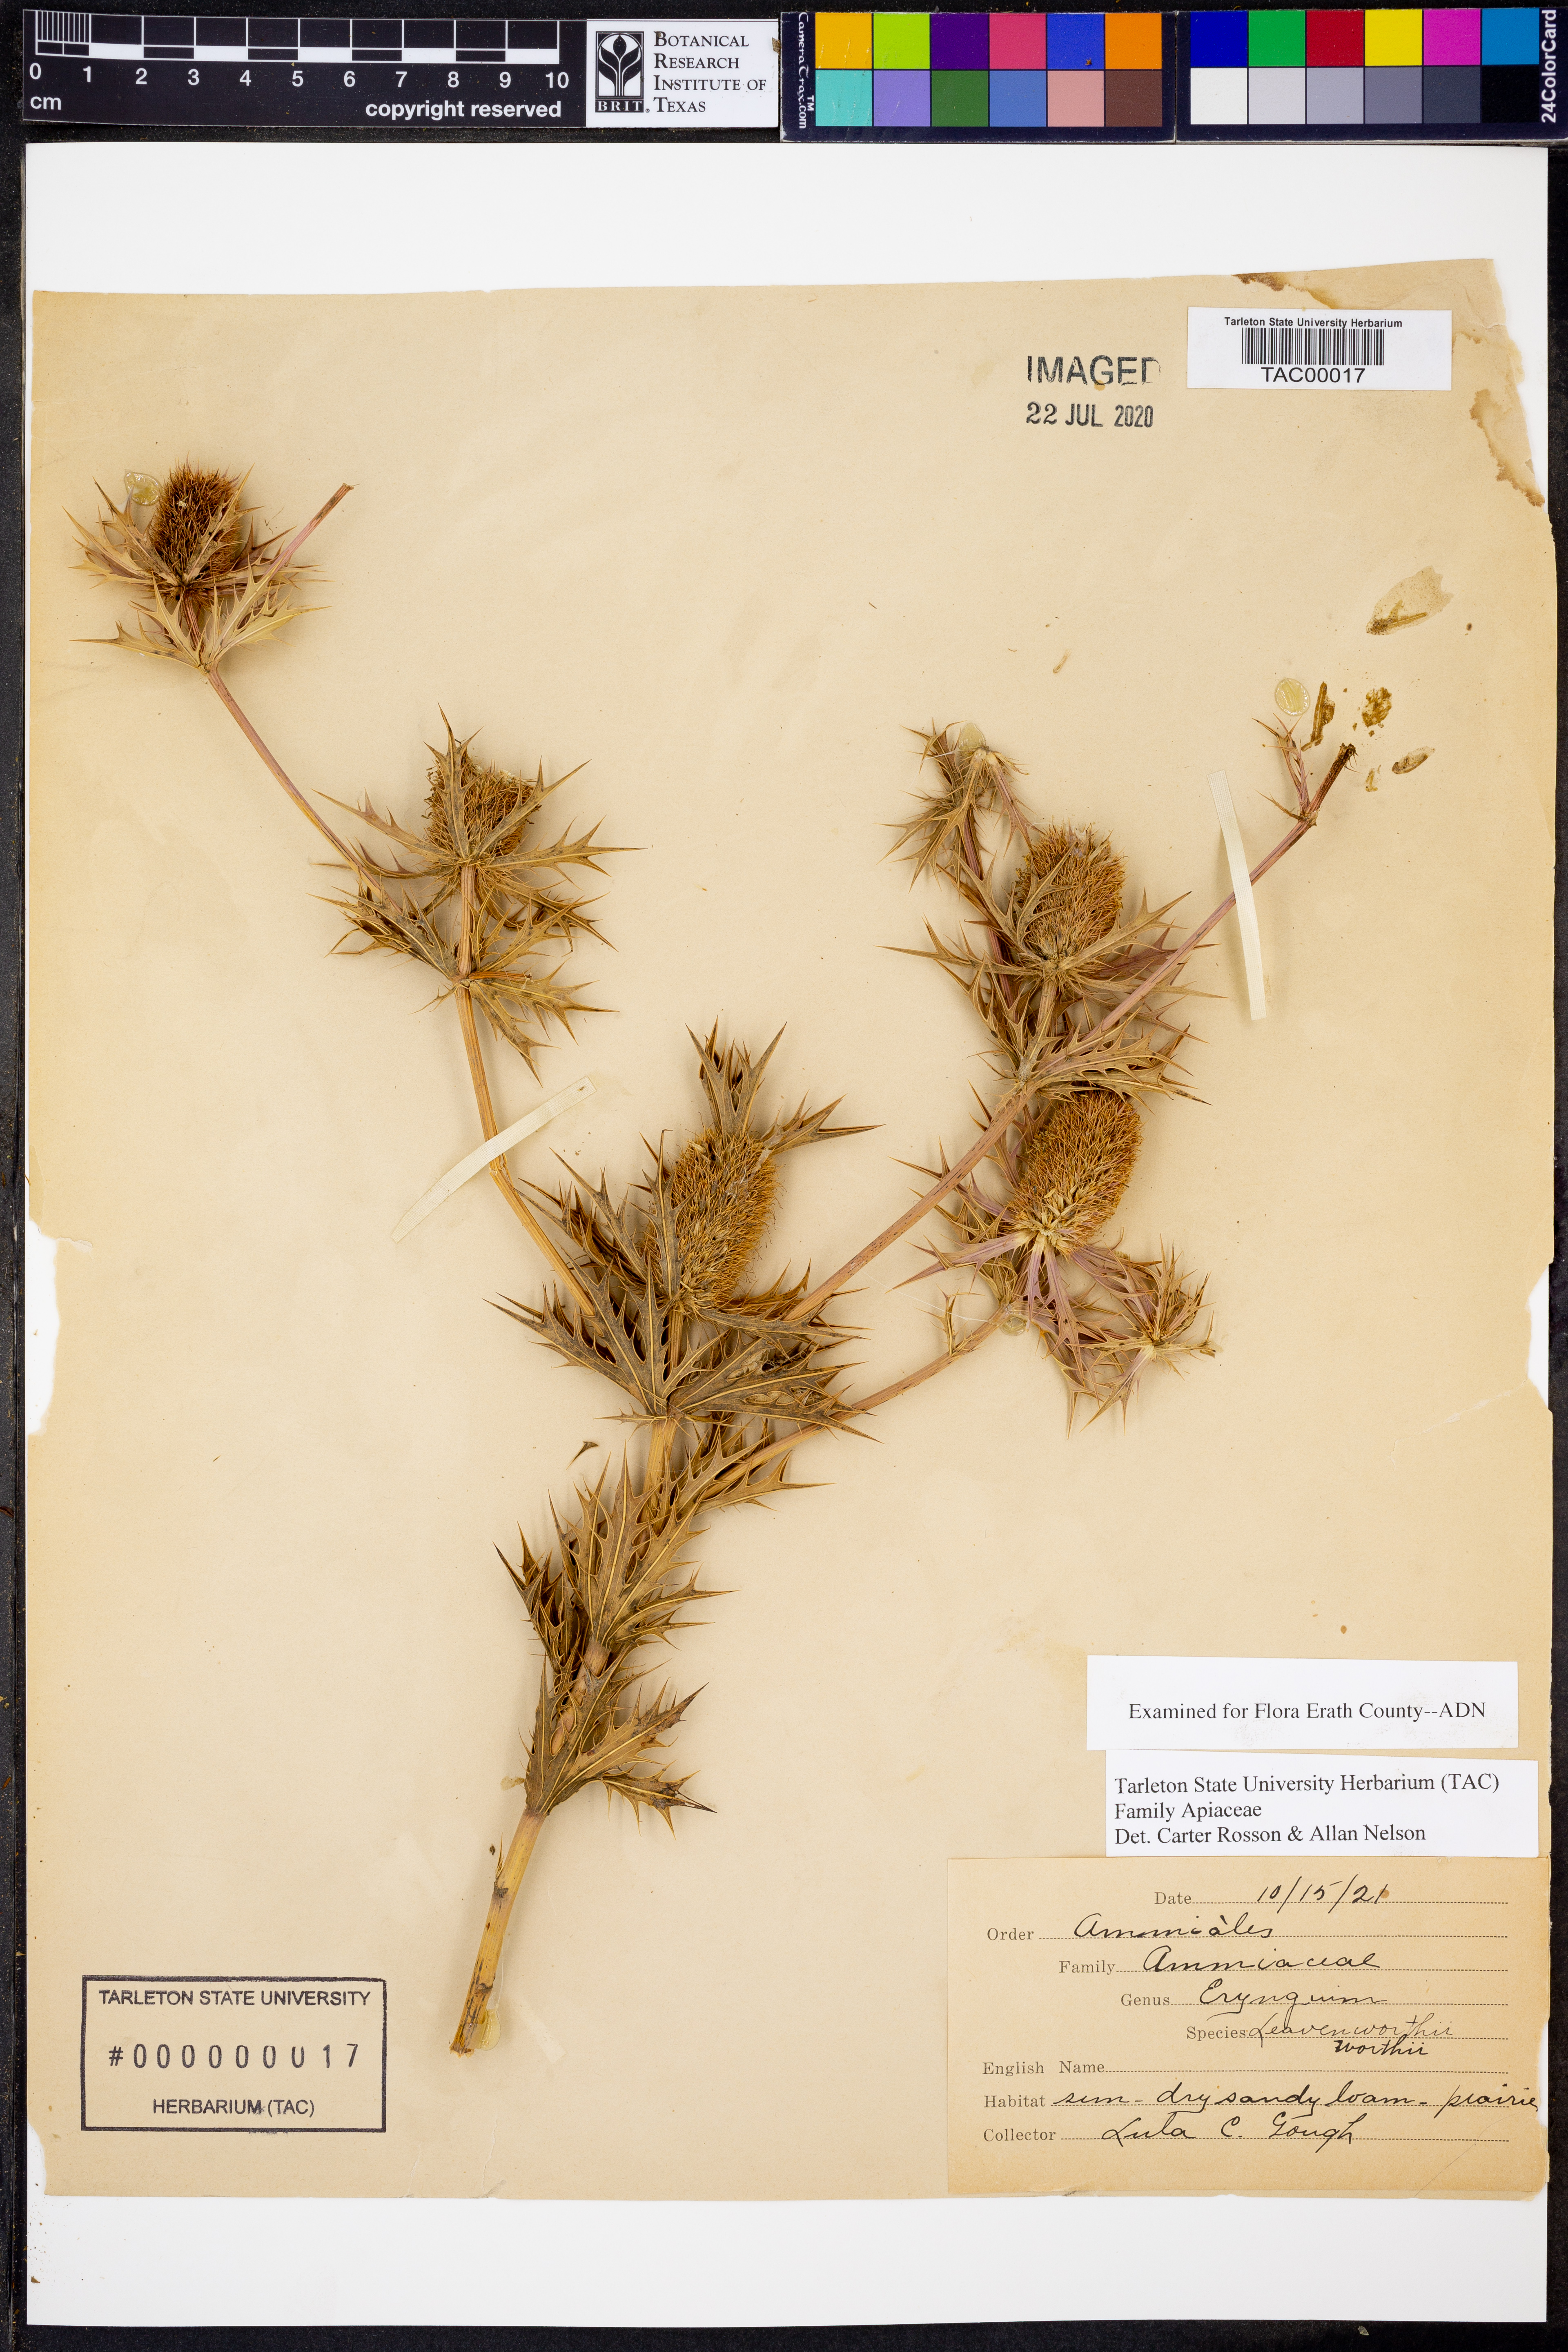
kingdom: Plantae
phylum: Tracheophyta
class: Magnoliopsida
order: Apiales
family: Apiaceae
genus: Eryngium
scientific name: Eryngium leavenworthii
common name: Leavenworth's eryngo
